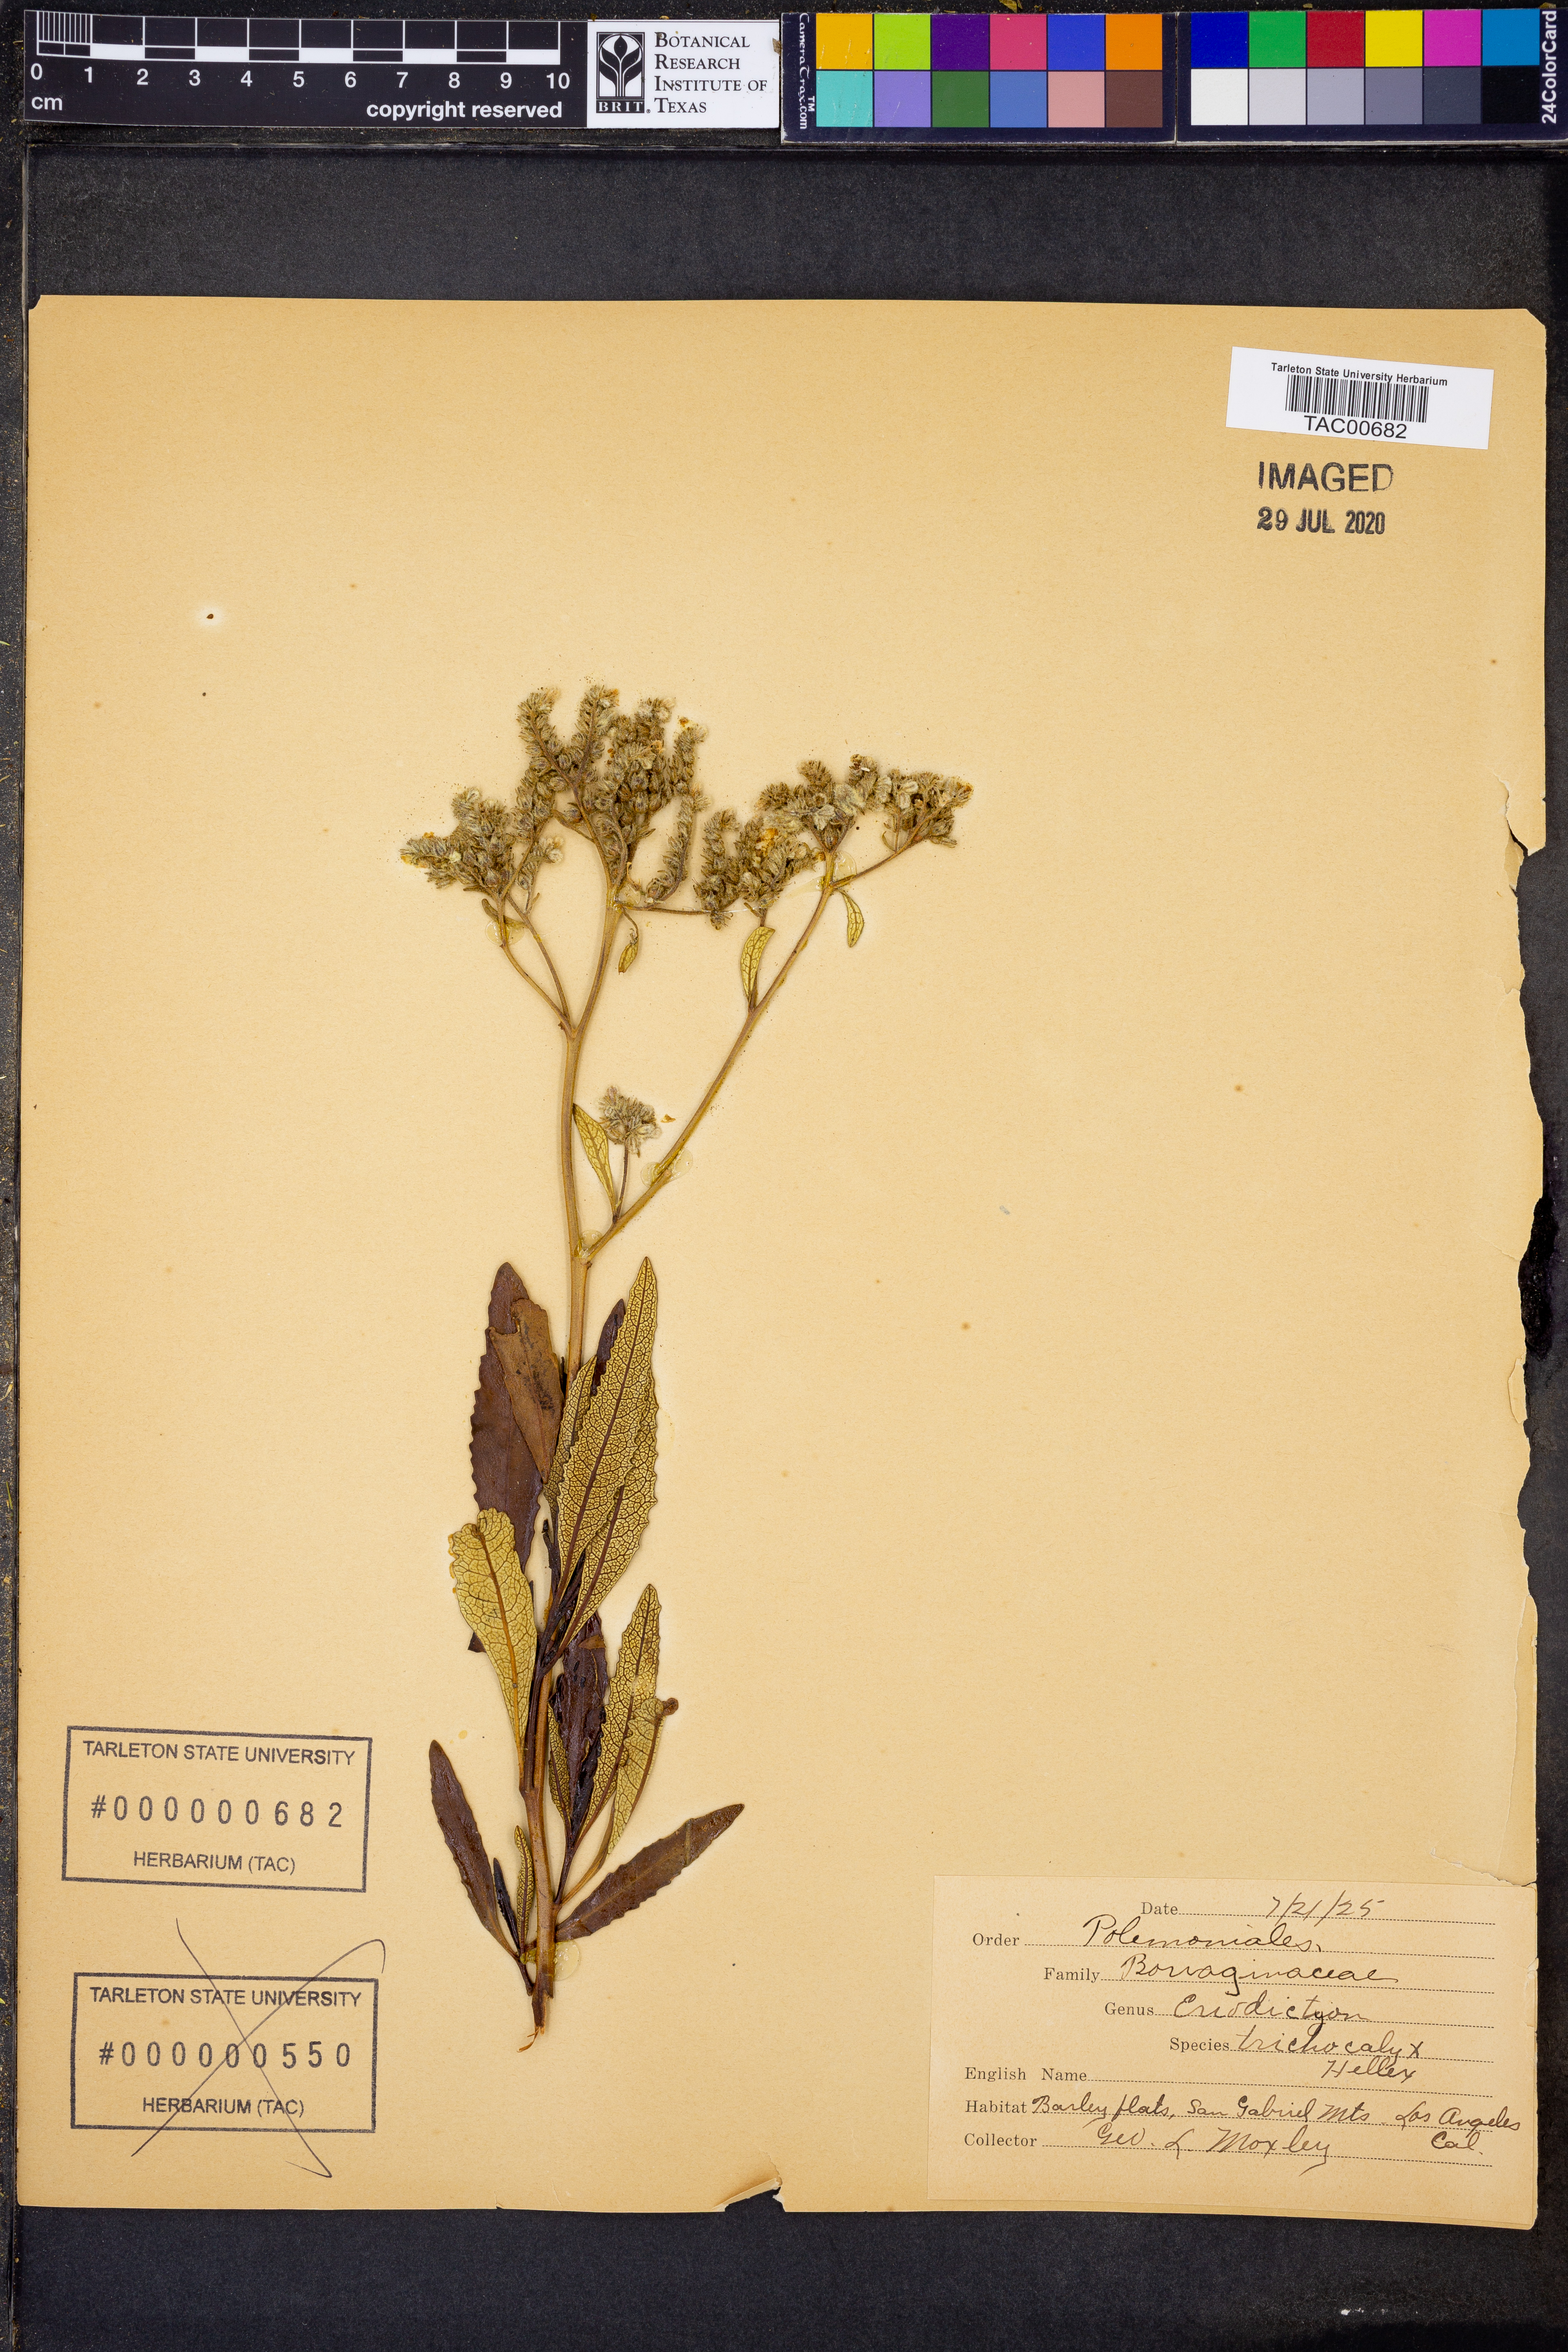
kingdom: Plantae
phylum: Tracheophyta
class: Magnoliopsida
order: Boraginales
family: Namaceae
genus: Eriodictyon
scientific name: Eriodictyon trichocalyx
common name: Hairy yerba-santa
